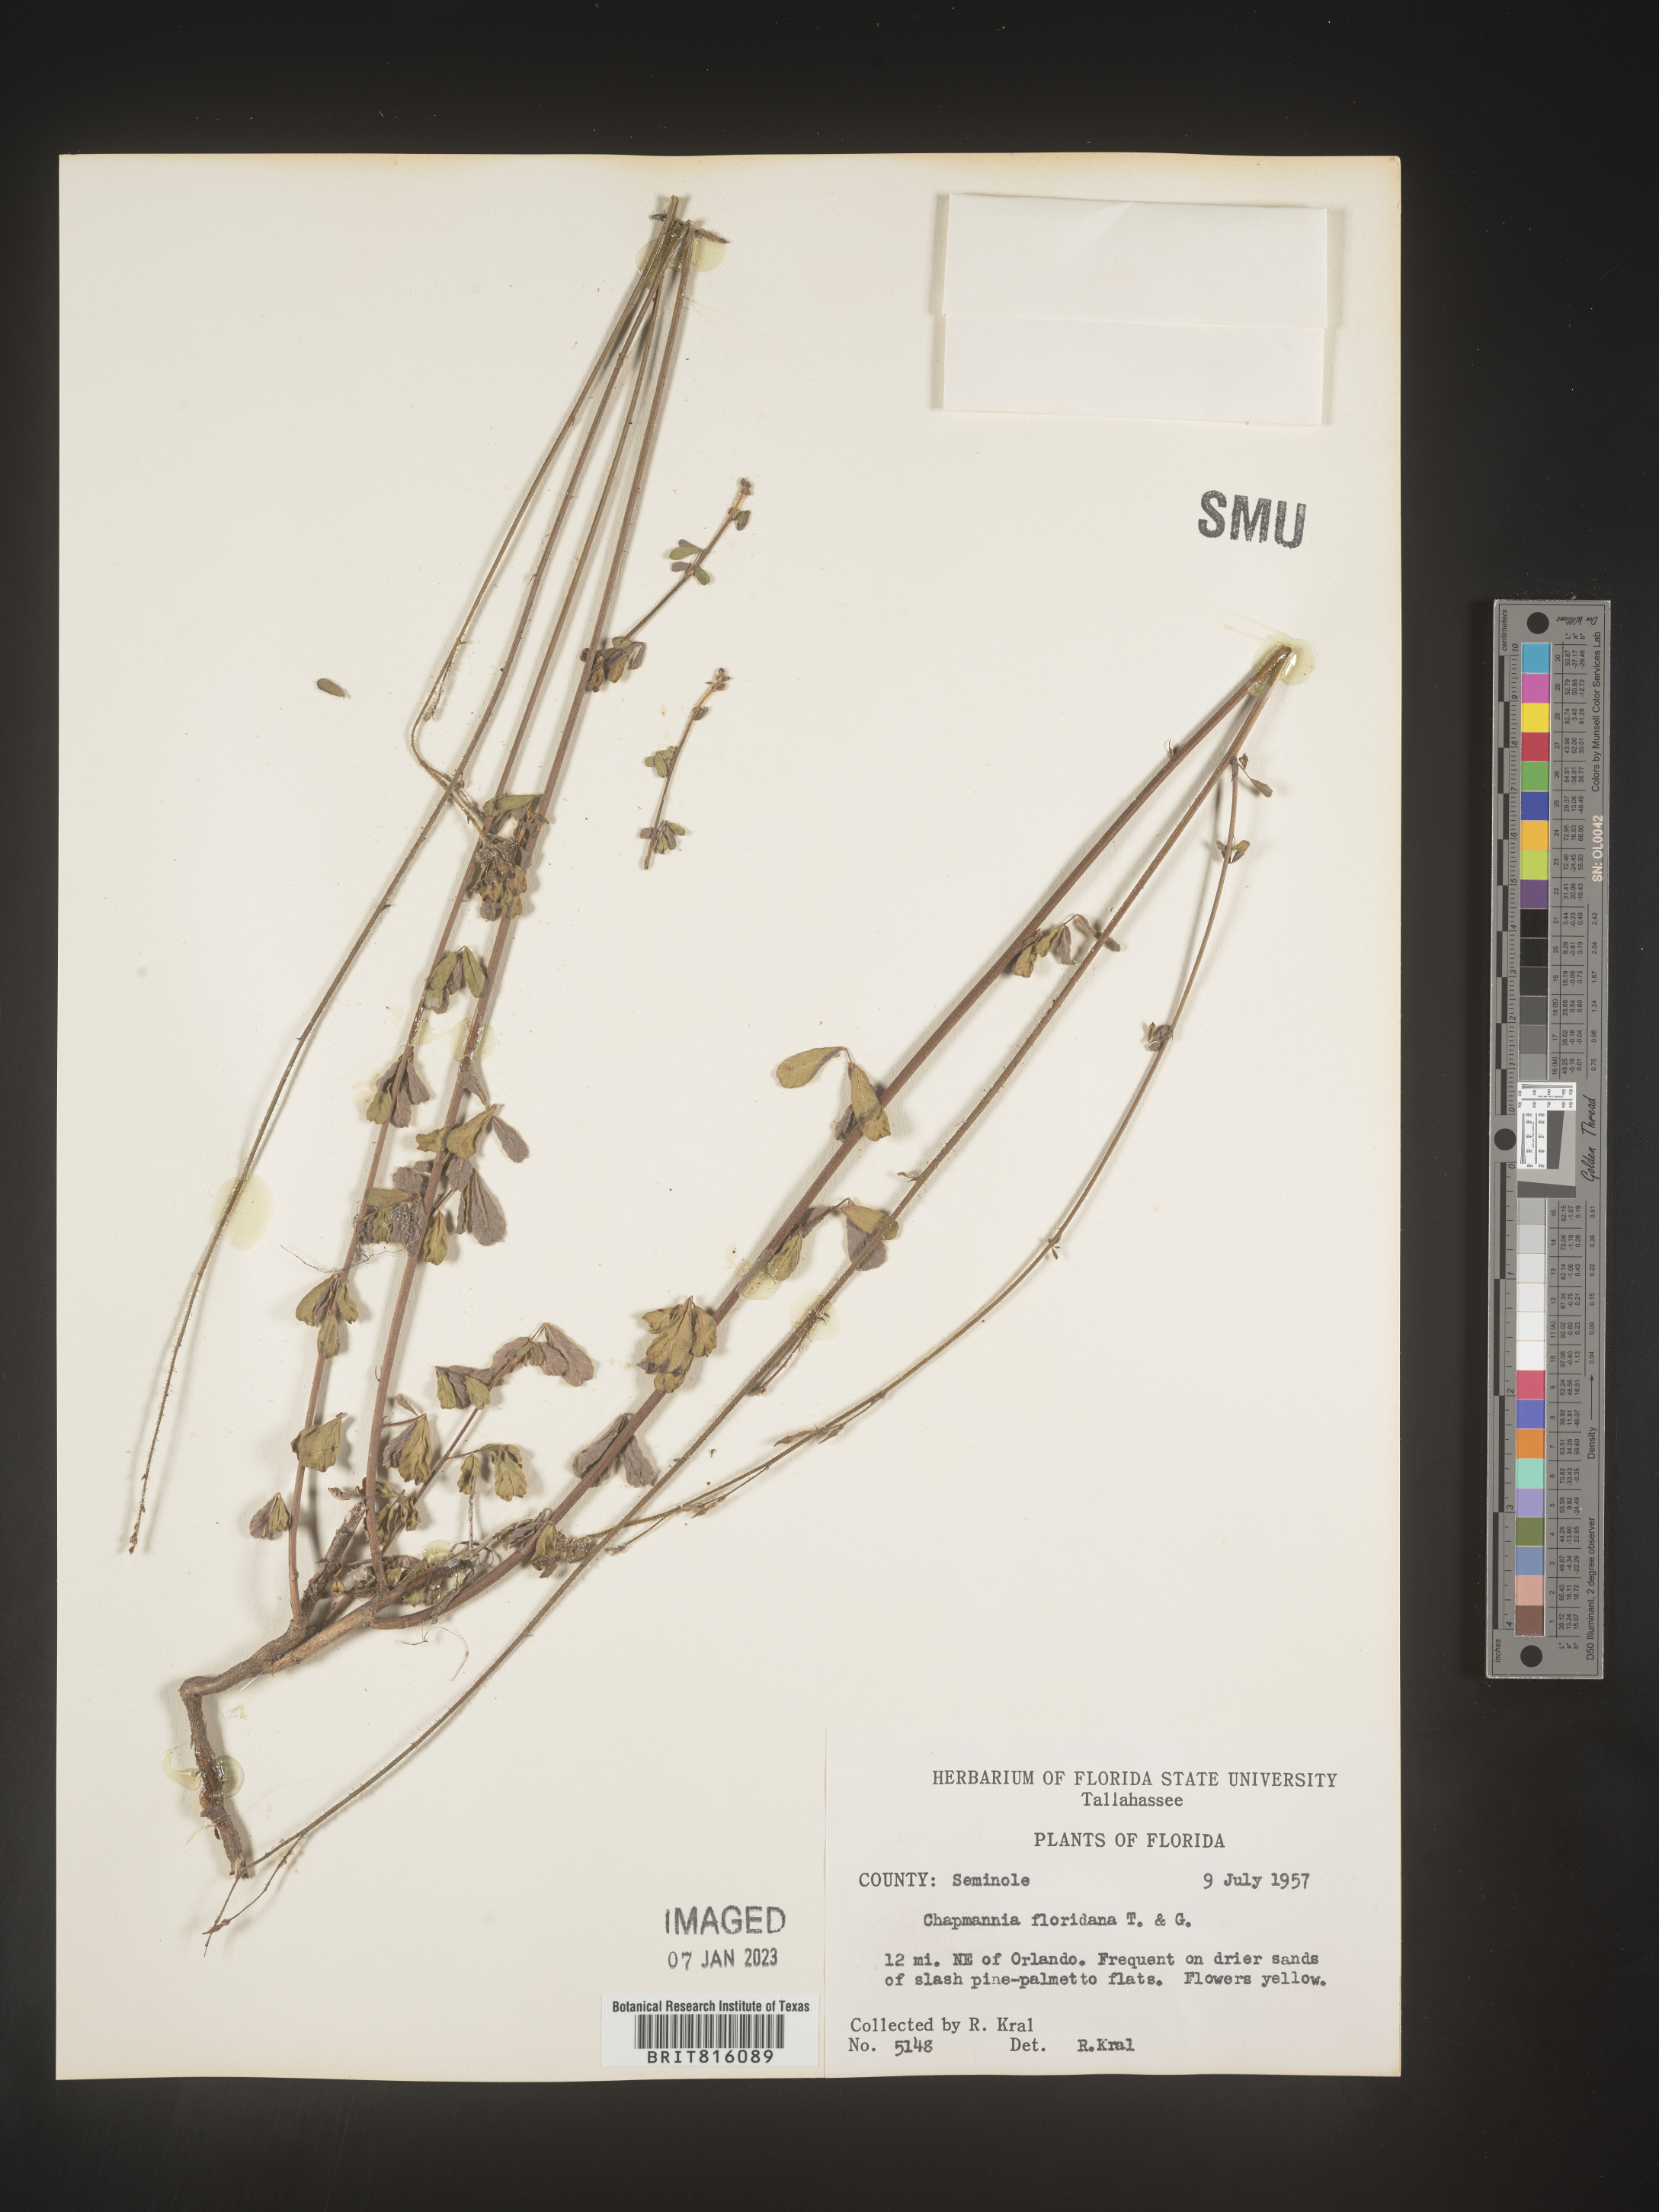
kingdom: Plantae
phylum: Tracheophyta
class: Magnoliopsida
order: Fabales
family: Fabaceae
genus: Chapmannia
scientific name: Chapmannia
